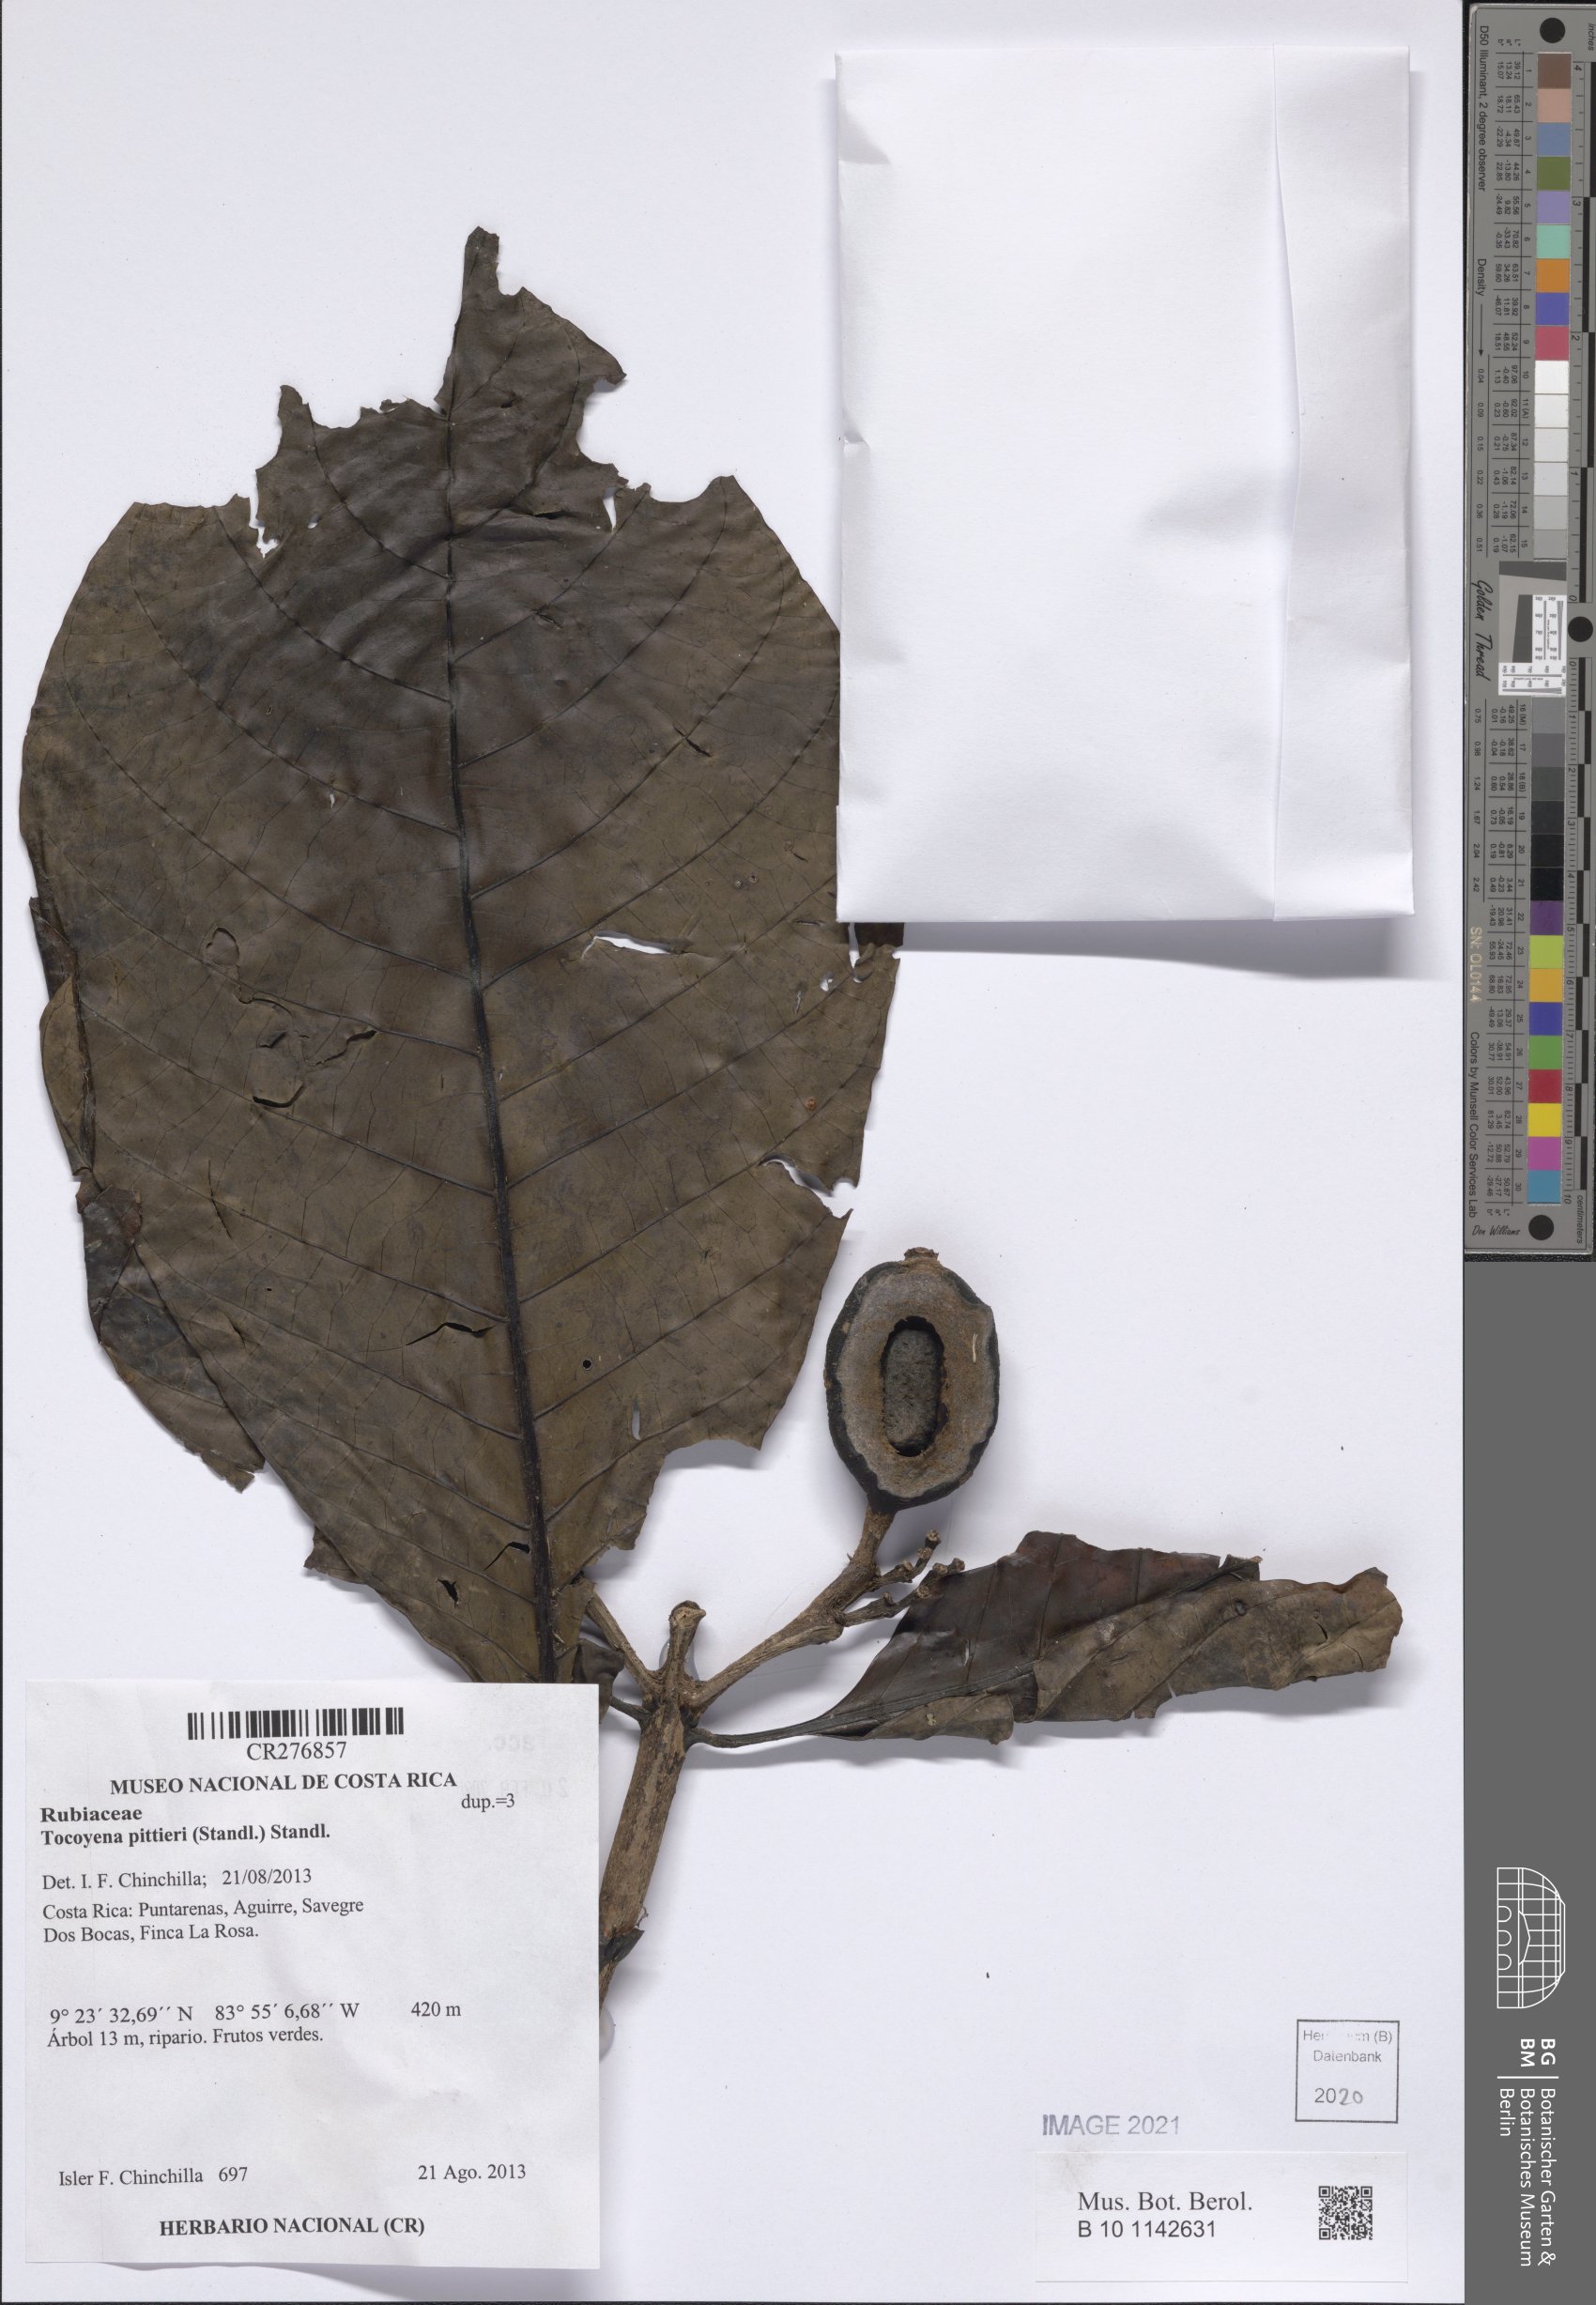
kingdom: Plantae
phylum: Tracheophyta
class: Magnoliopsida
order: Gentianales
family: Rubiaceae
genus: Tocoyena
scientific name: Tocoyena pittieri
